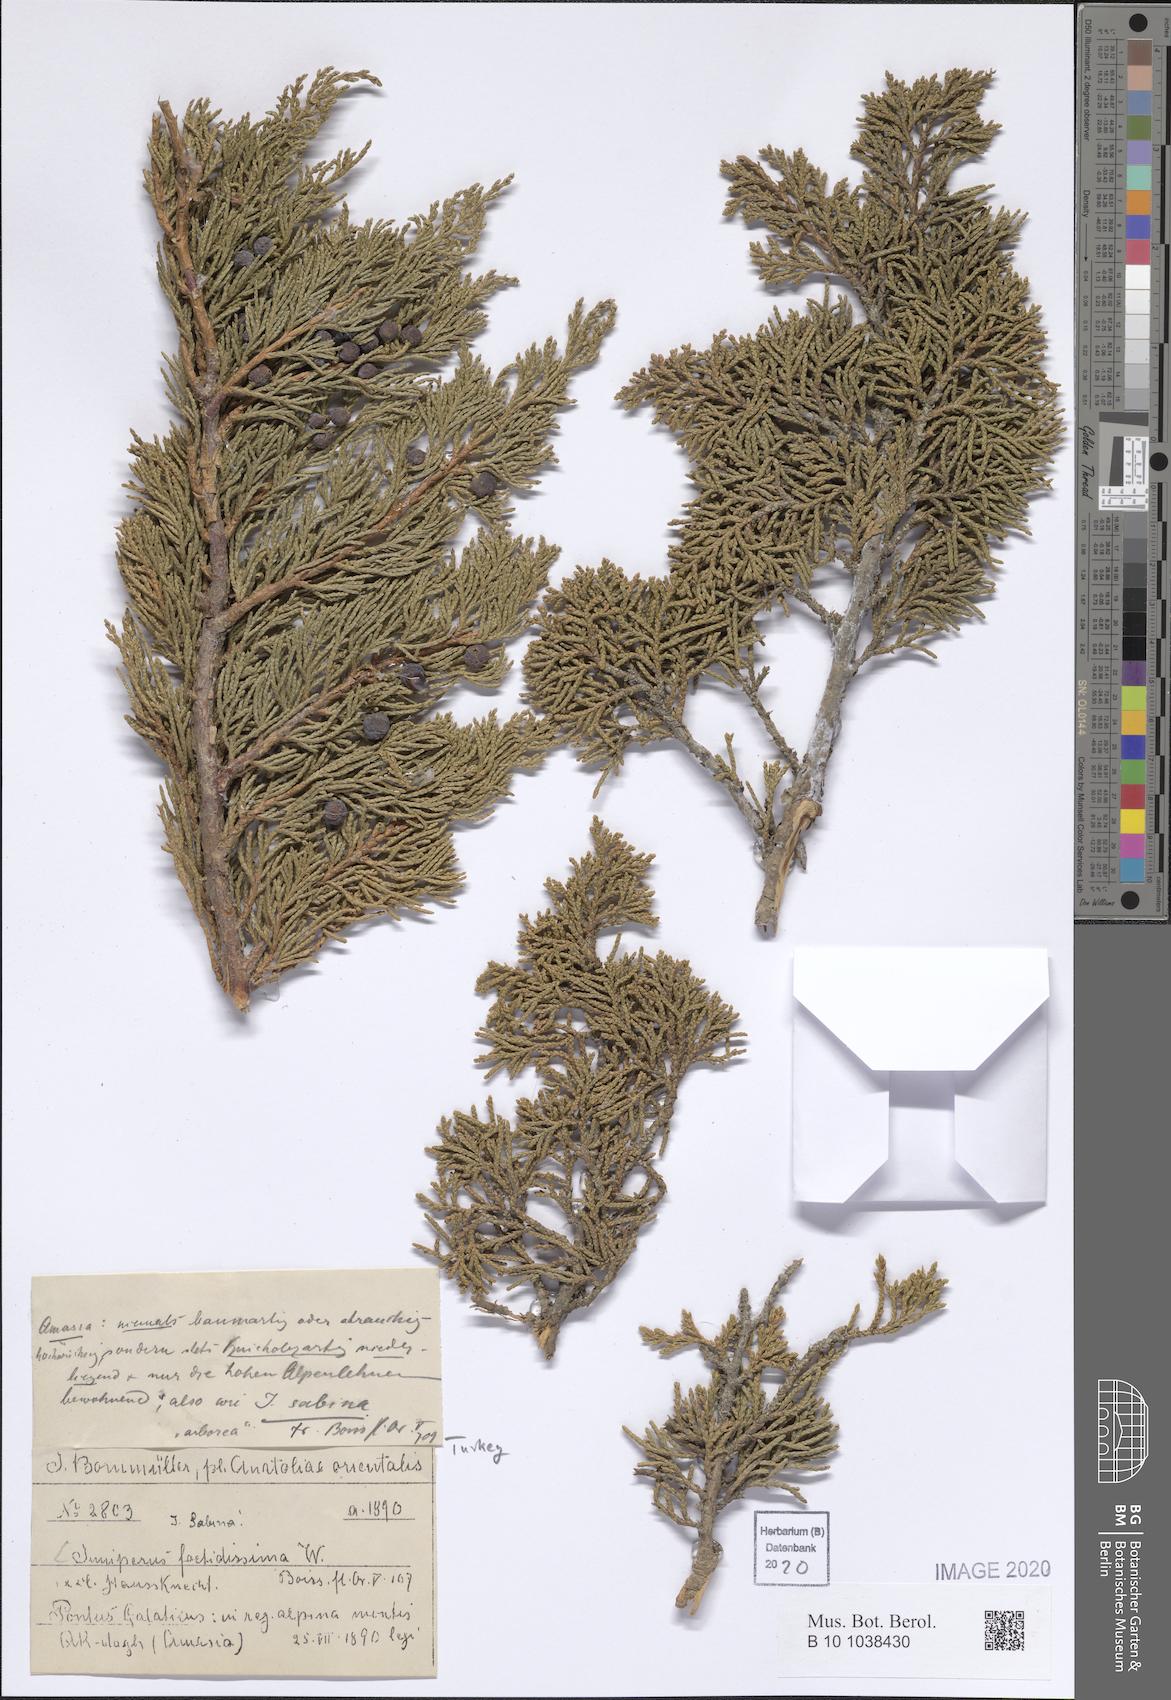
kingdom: Plantae
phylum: Tracheophyta
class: Pinopsida
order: Pinales
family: Cupressaceae
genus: Juniperus
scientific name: Juniperus sabina
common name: Savin
